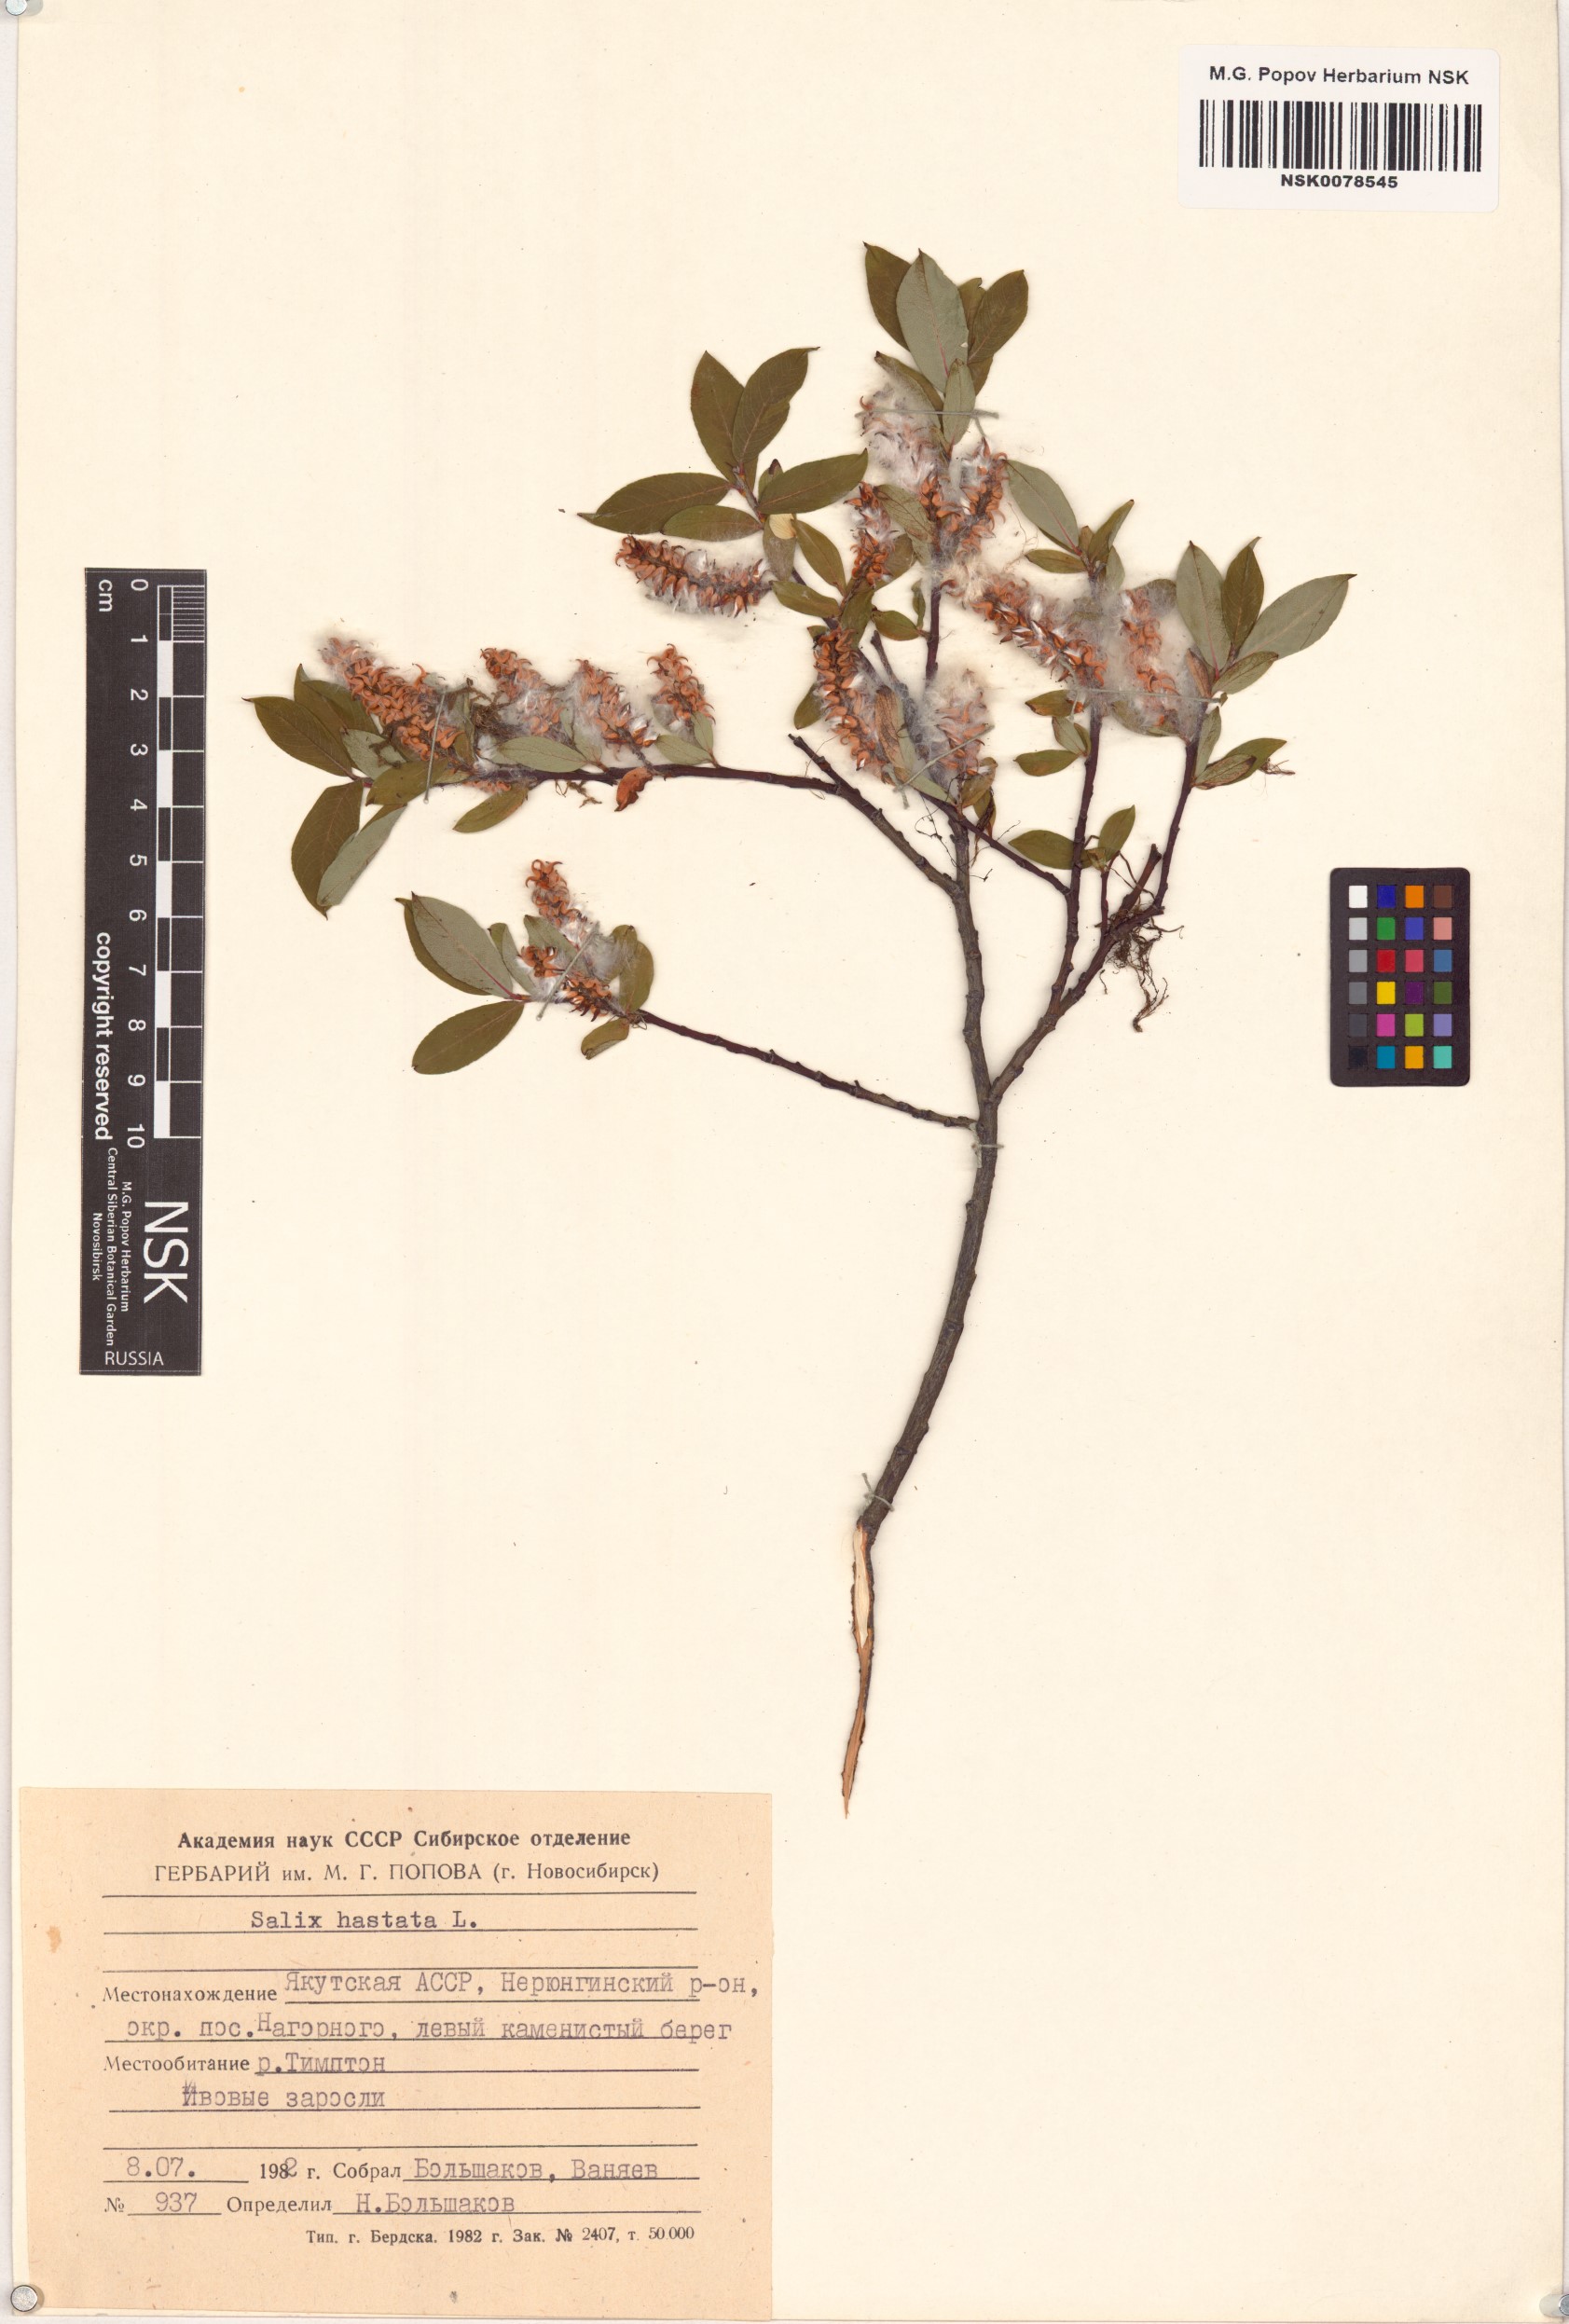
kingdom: Plantae
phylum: Tracheophyta
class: Magnoliopsida
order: Malpighiales
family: Salicaceae
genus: Salix
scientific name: Salix hastata
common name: Halberd willow
